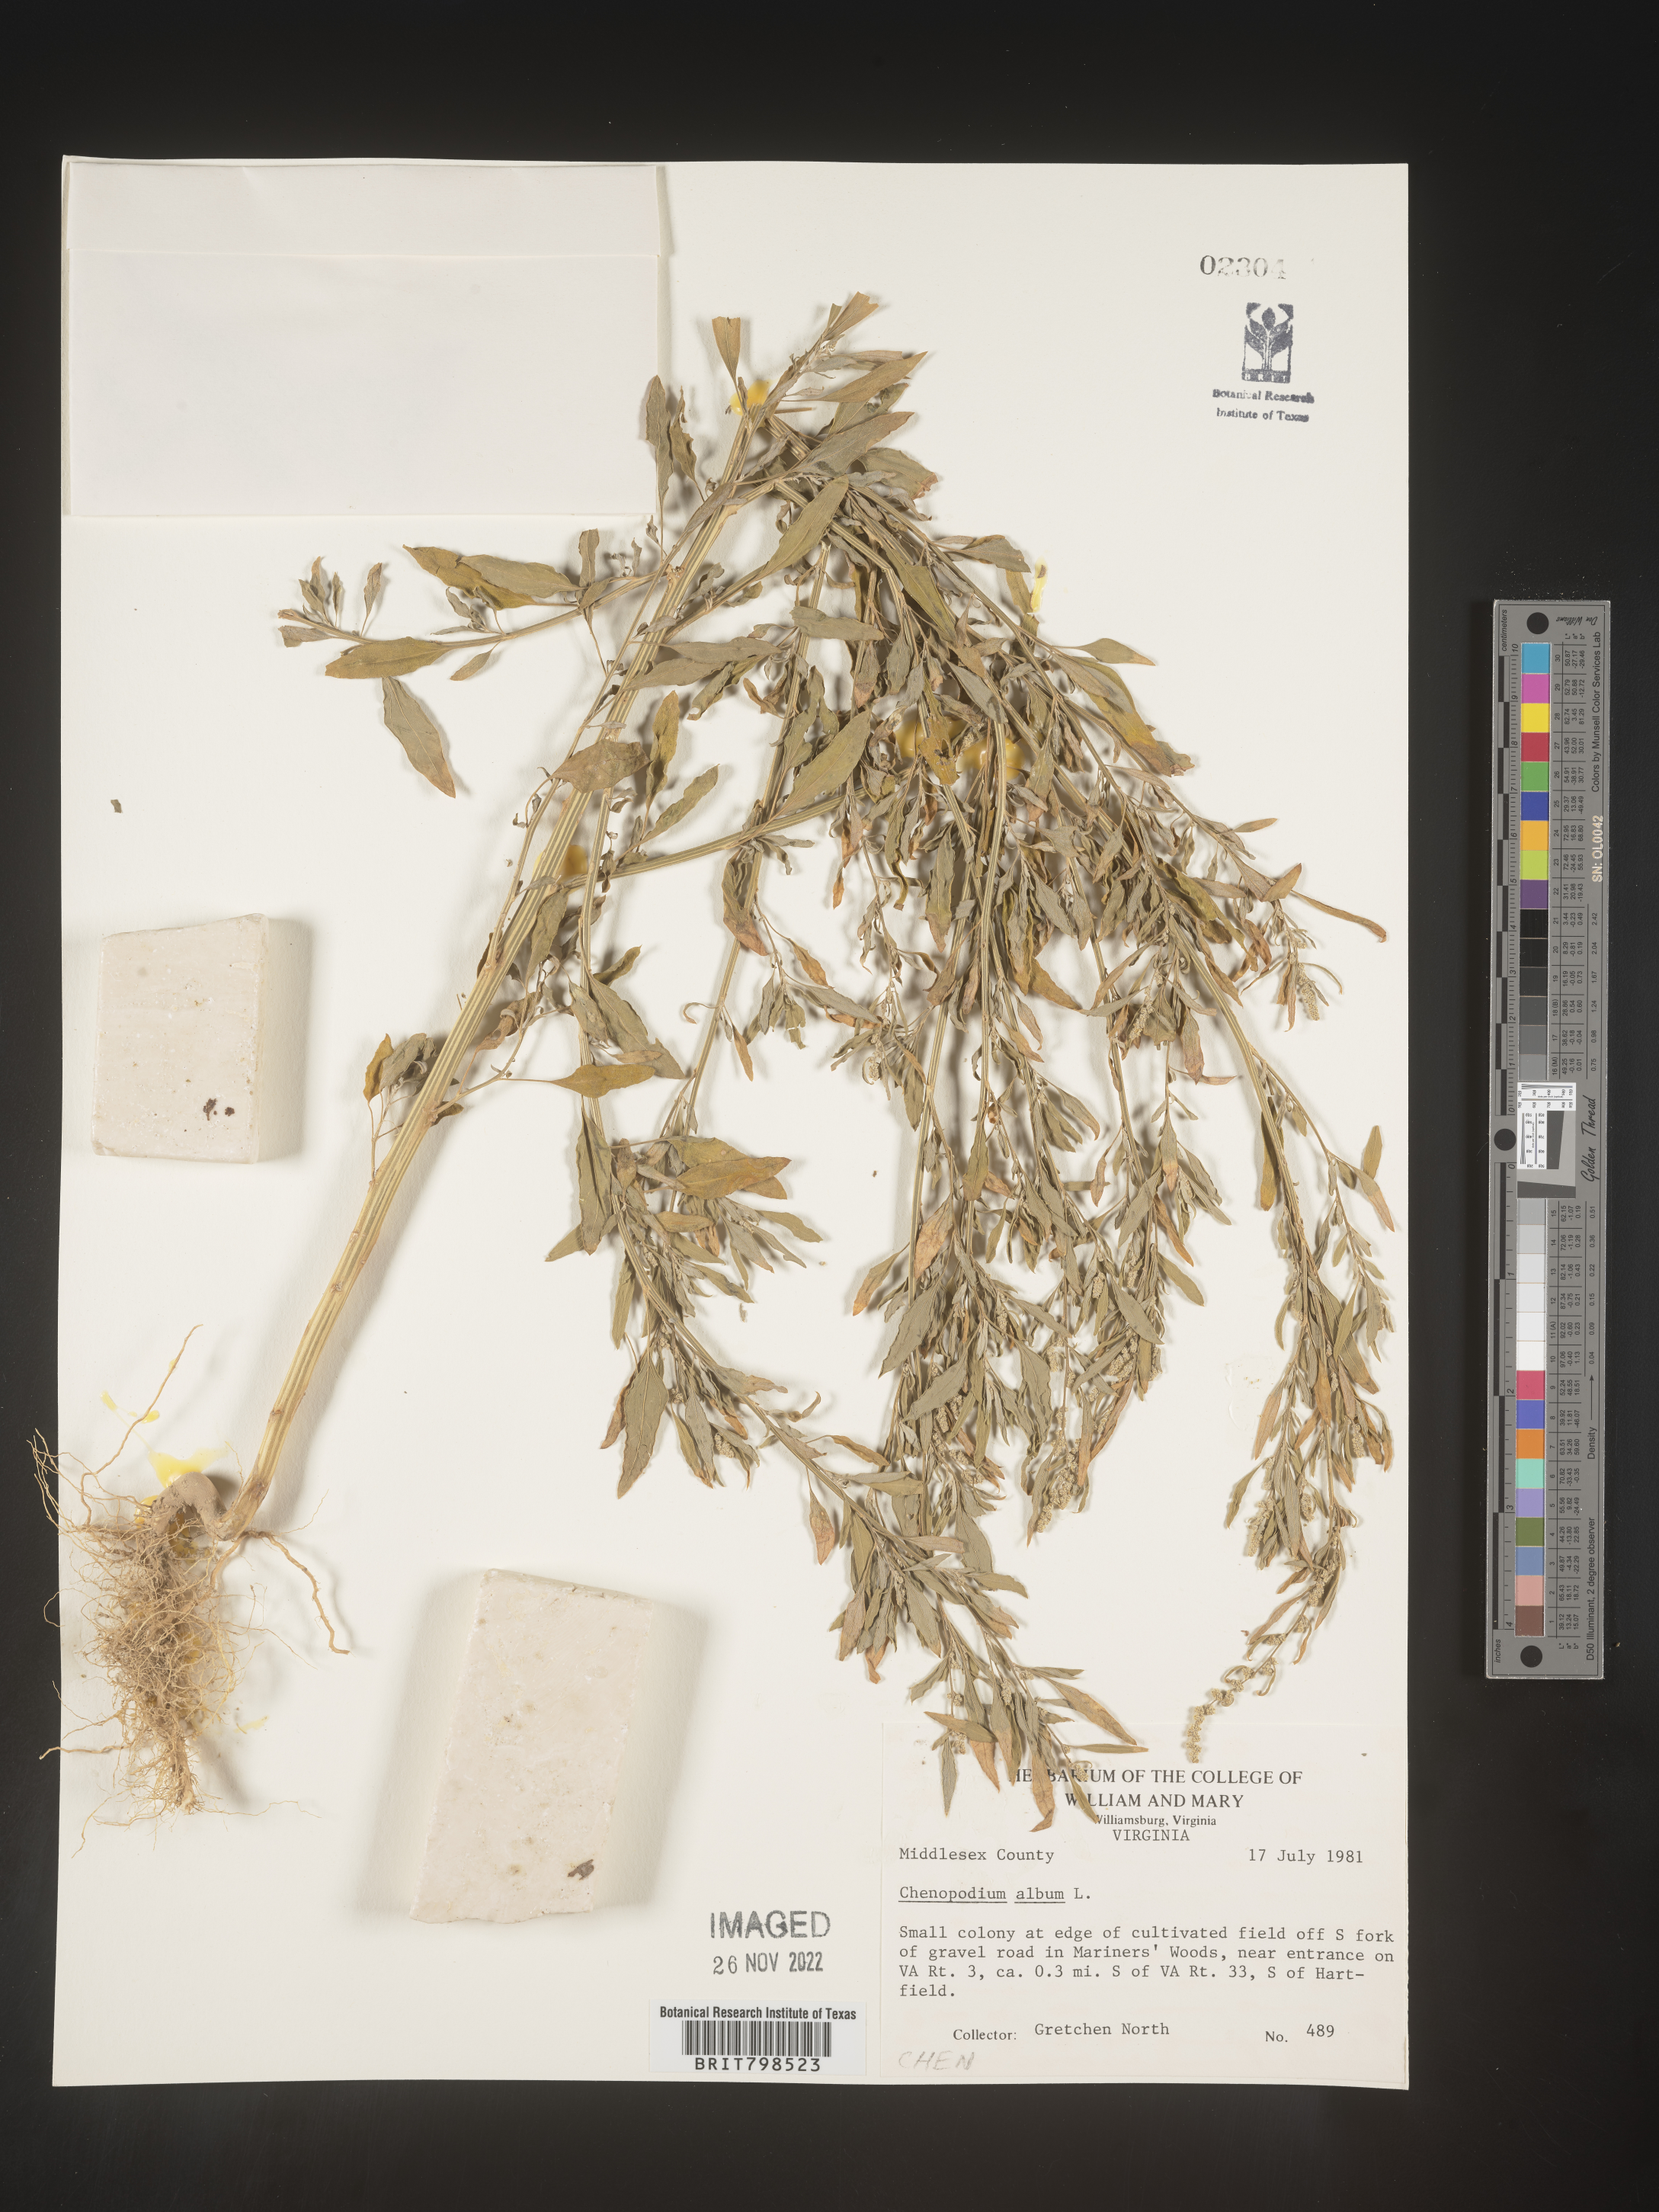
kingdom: Plantae
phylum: Tracheophyta
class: Magnoliopsida
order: Caryophyllales
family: Amaranthaceae
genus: Chenopodium
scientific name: Chenopodium album
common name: Fat-hen
